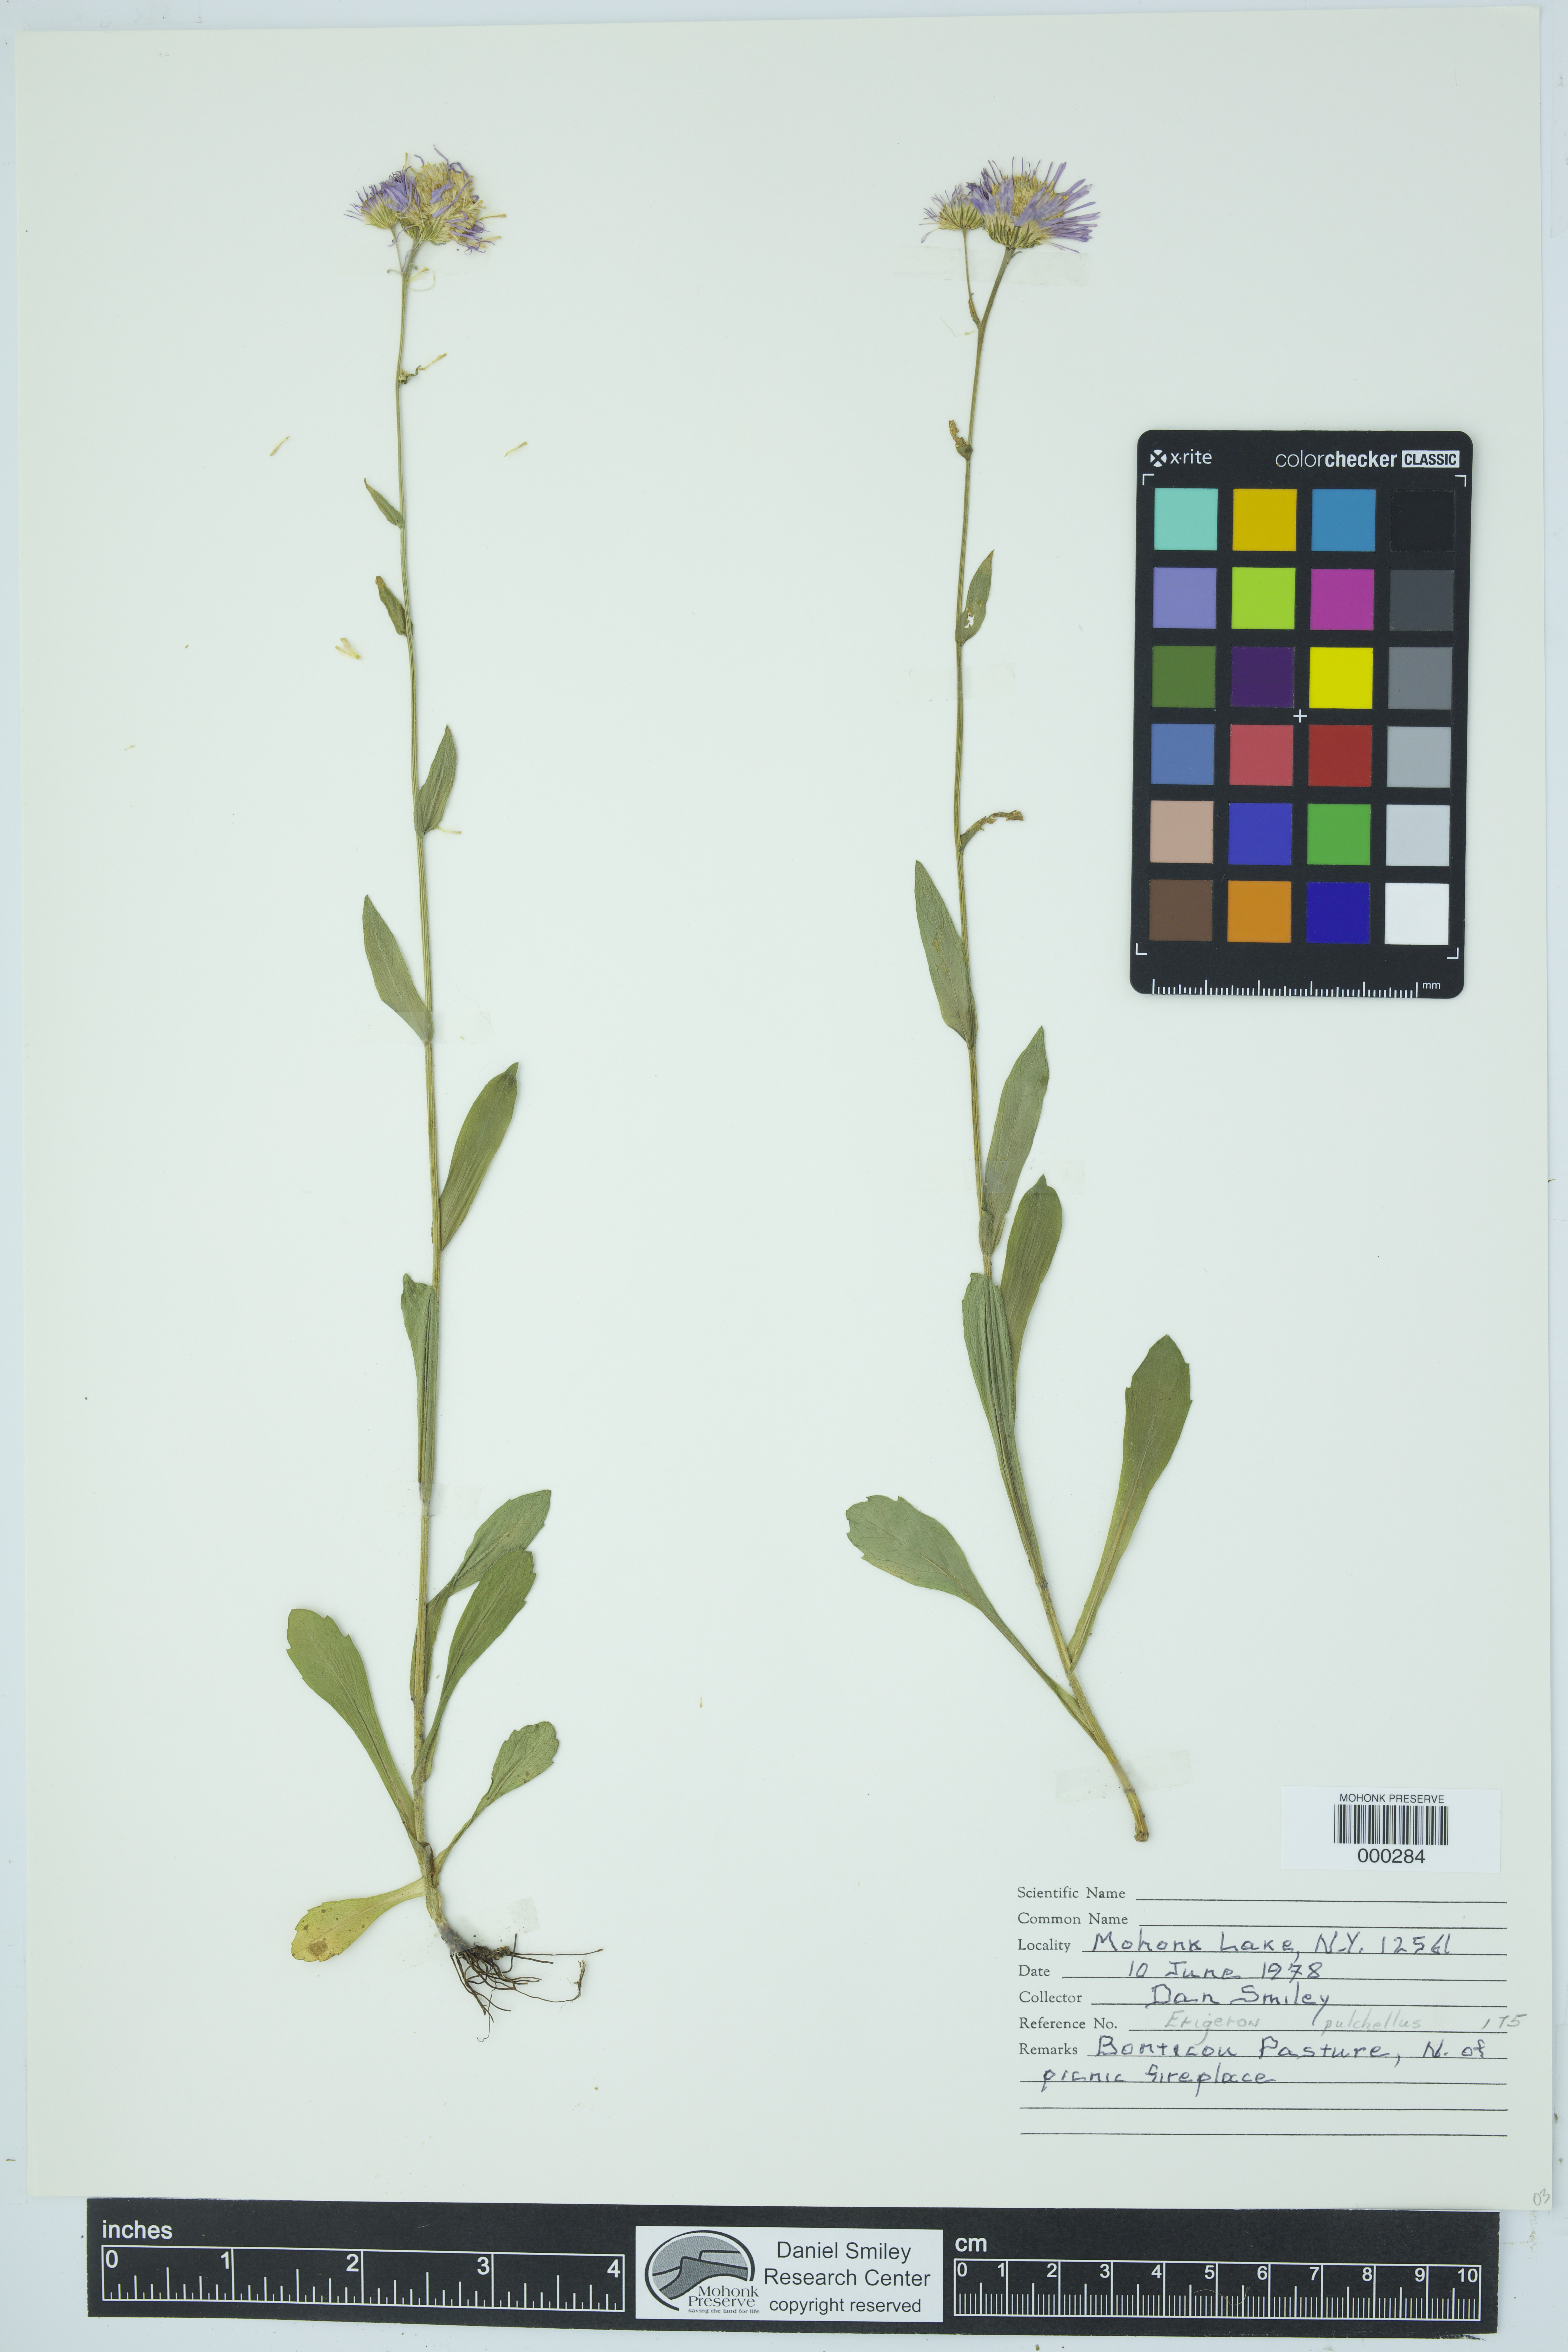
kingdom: Plantae
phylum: Tracheophyta
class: Magnoliopsida
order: Asterales
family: Asteraceae
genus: Erigeron
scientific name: Erigeron pulchellus
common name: Hairy fleabane
